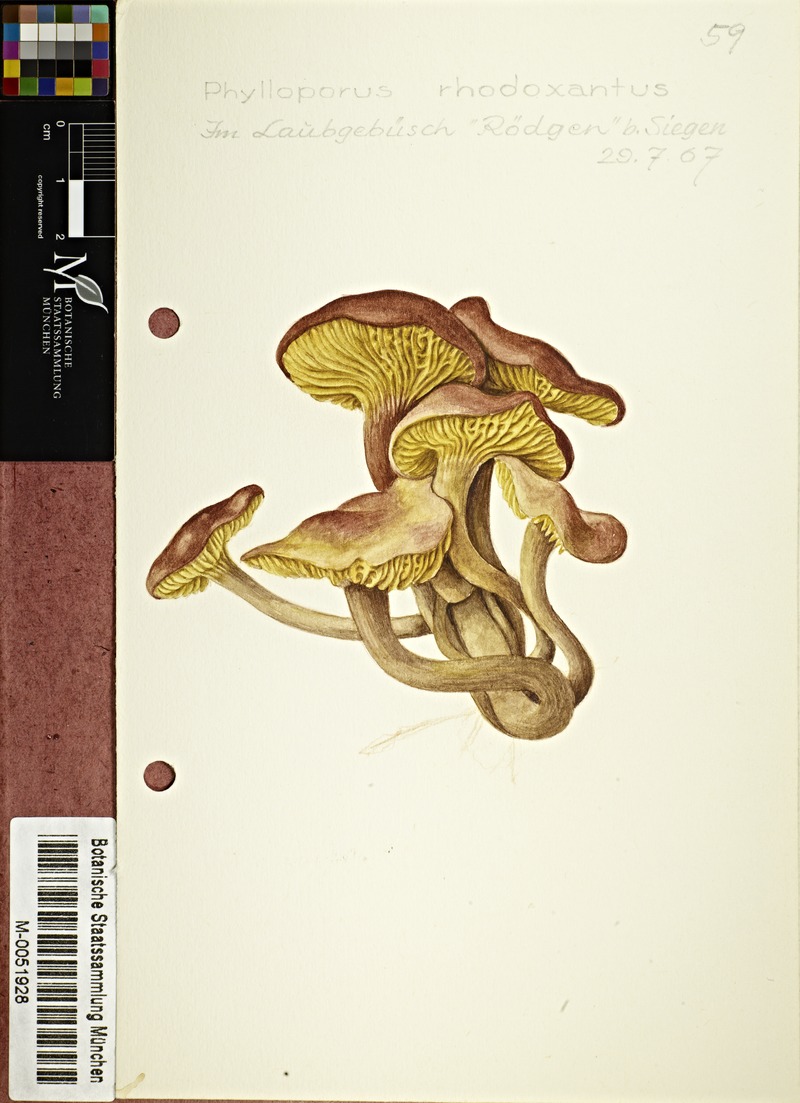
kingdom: Fungi
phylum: Basidiomycota
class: Agaricomycetes
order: Boletales
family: Boletaceae
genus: Phylloporus
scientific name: Phylloporus rhodoxanthus
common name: Golden gilled bolete
